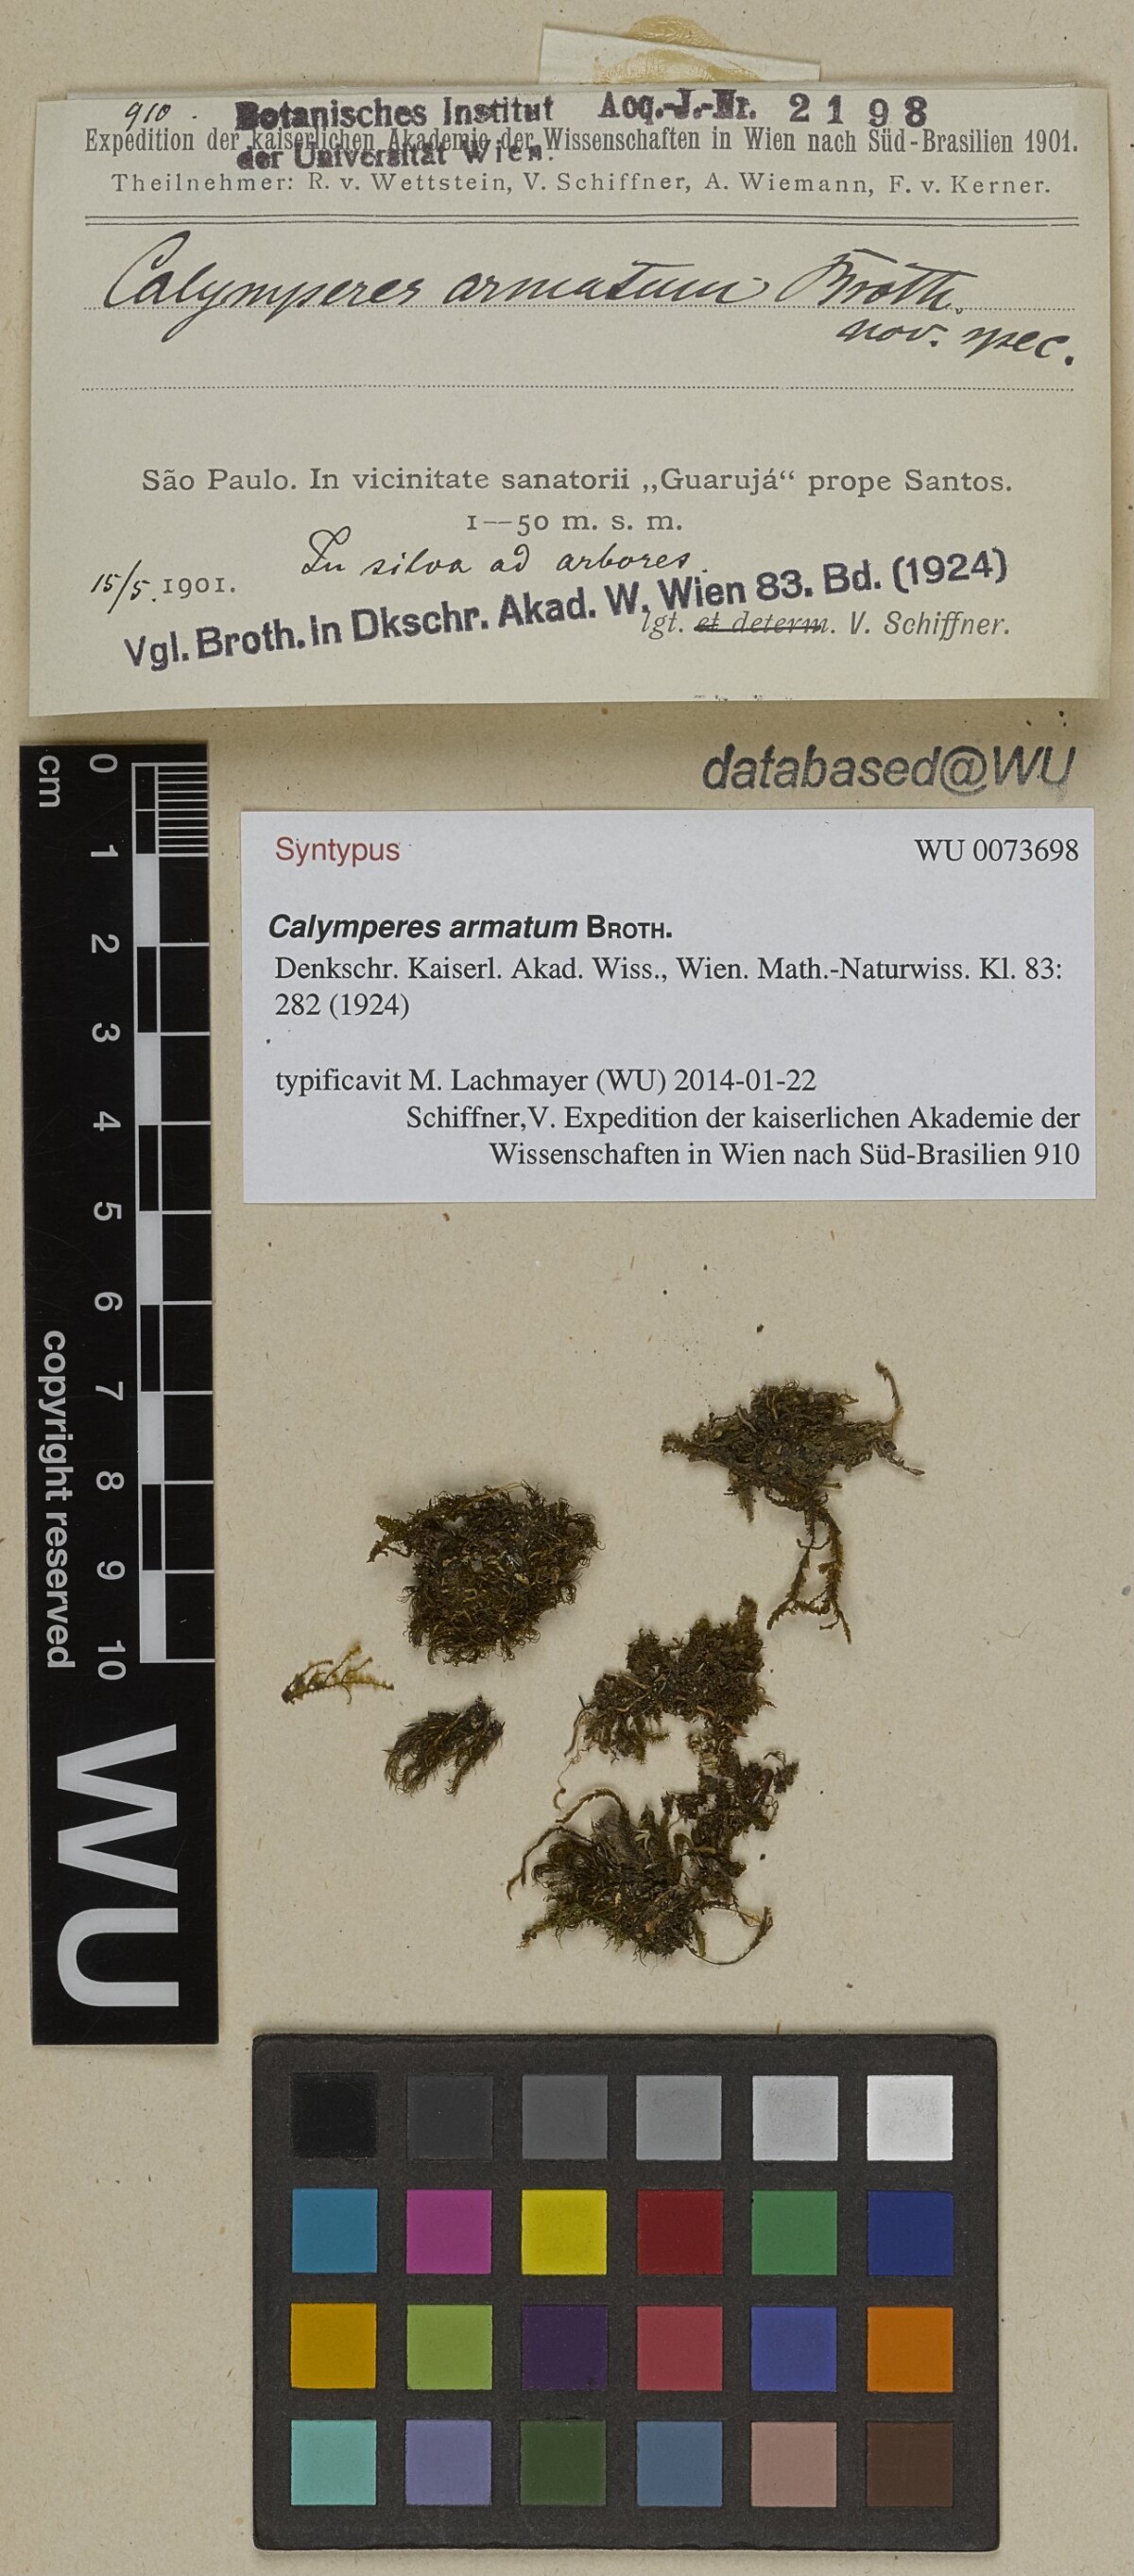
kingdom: Plantae
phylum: Bryophyta
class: Bryopsida
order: Dicranales
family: Calymperaceae
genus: Syrrhopodon
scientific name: Syrrhopodon incompletus
